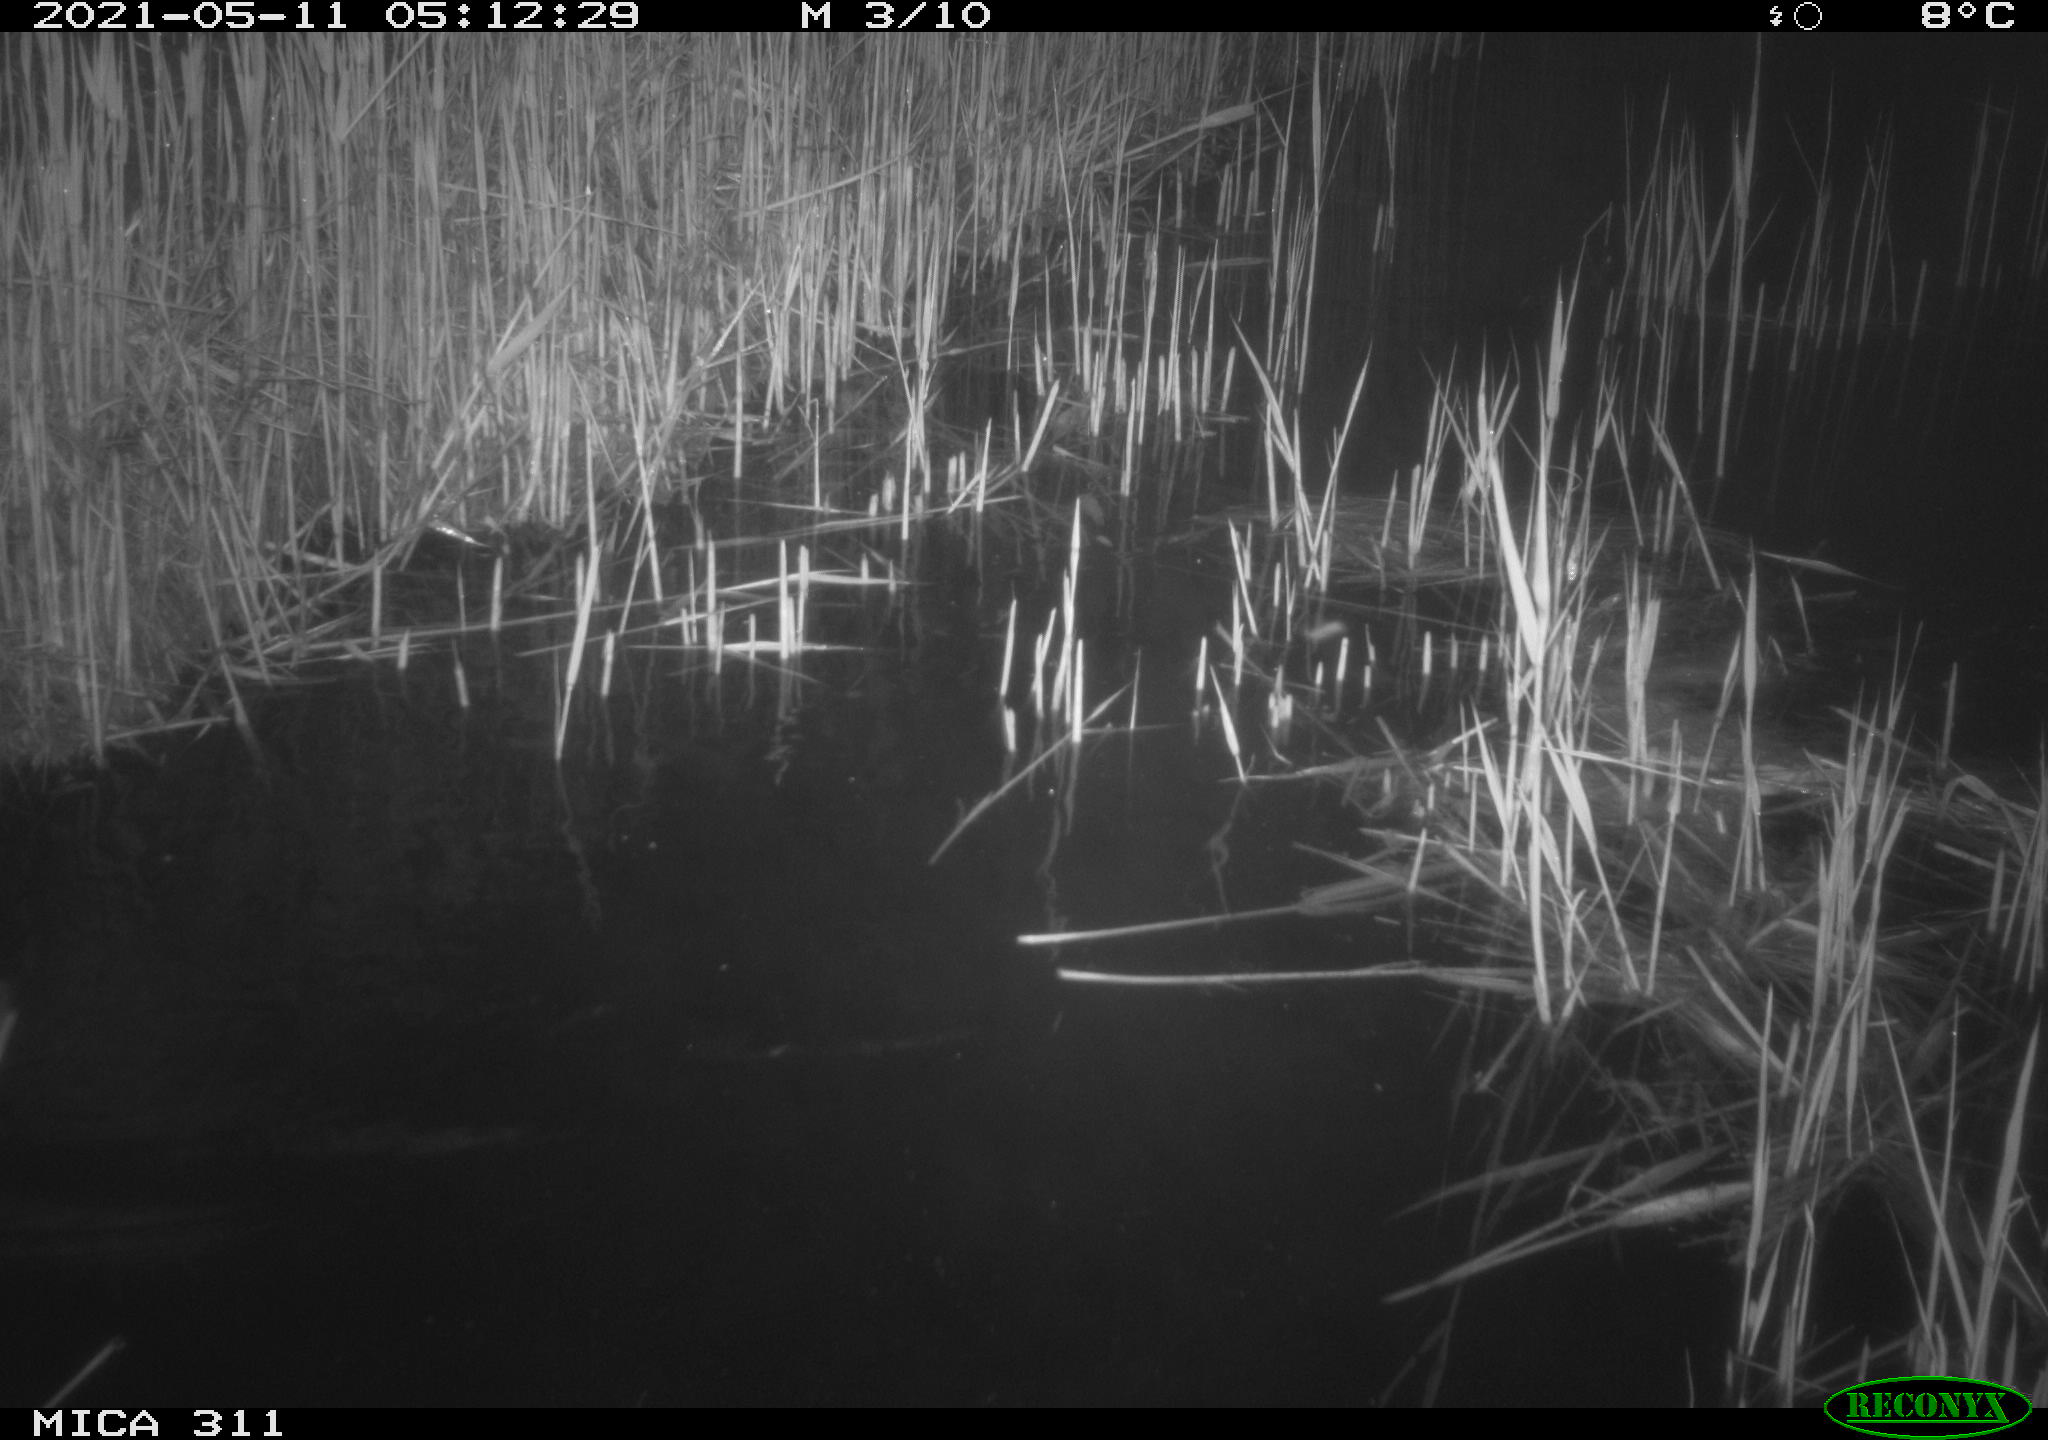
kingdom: Animalia
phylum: Chordata
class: Aves
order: Gruiformes
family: Rallidae
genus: Gallinula
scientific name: Gallinula chloropus
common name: Common moorhen
